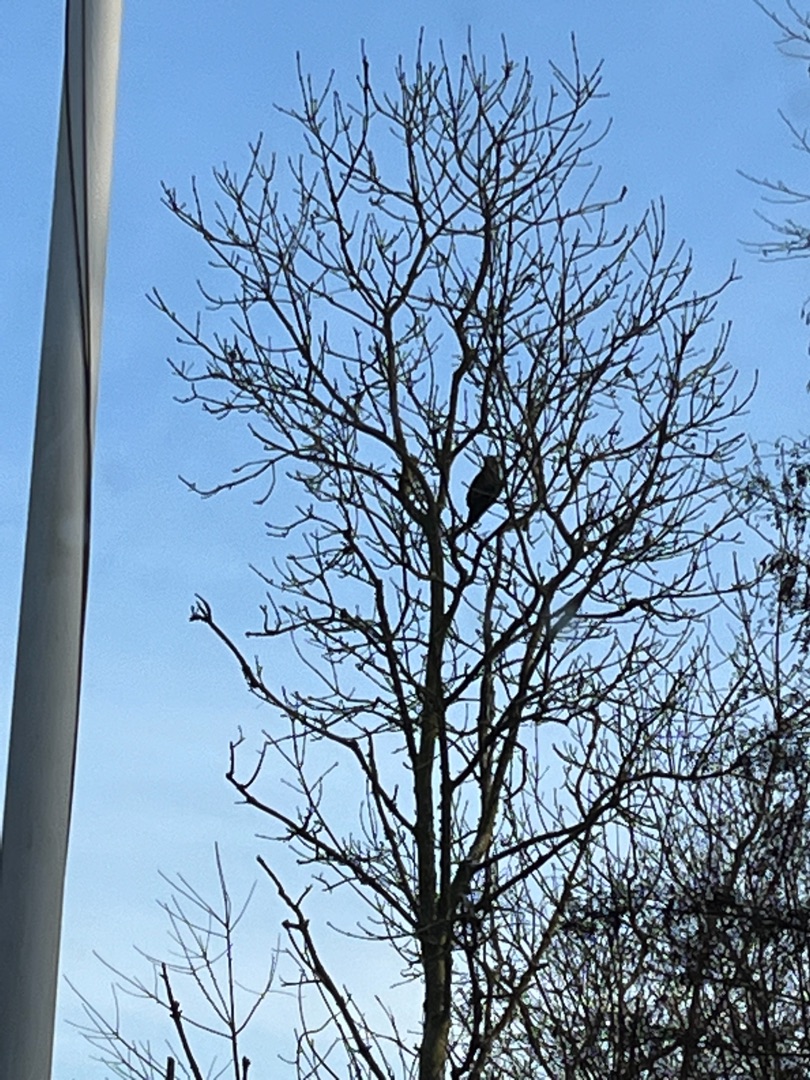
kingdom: Animalia
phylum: Chordata
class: Aves
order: Accipitriformes
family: Accipitridae
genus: Buteo
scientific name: Buteo buteo
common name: Musvåge
